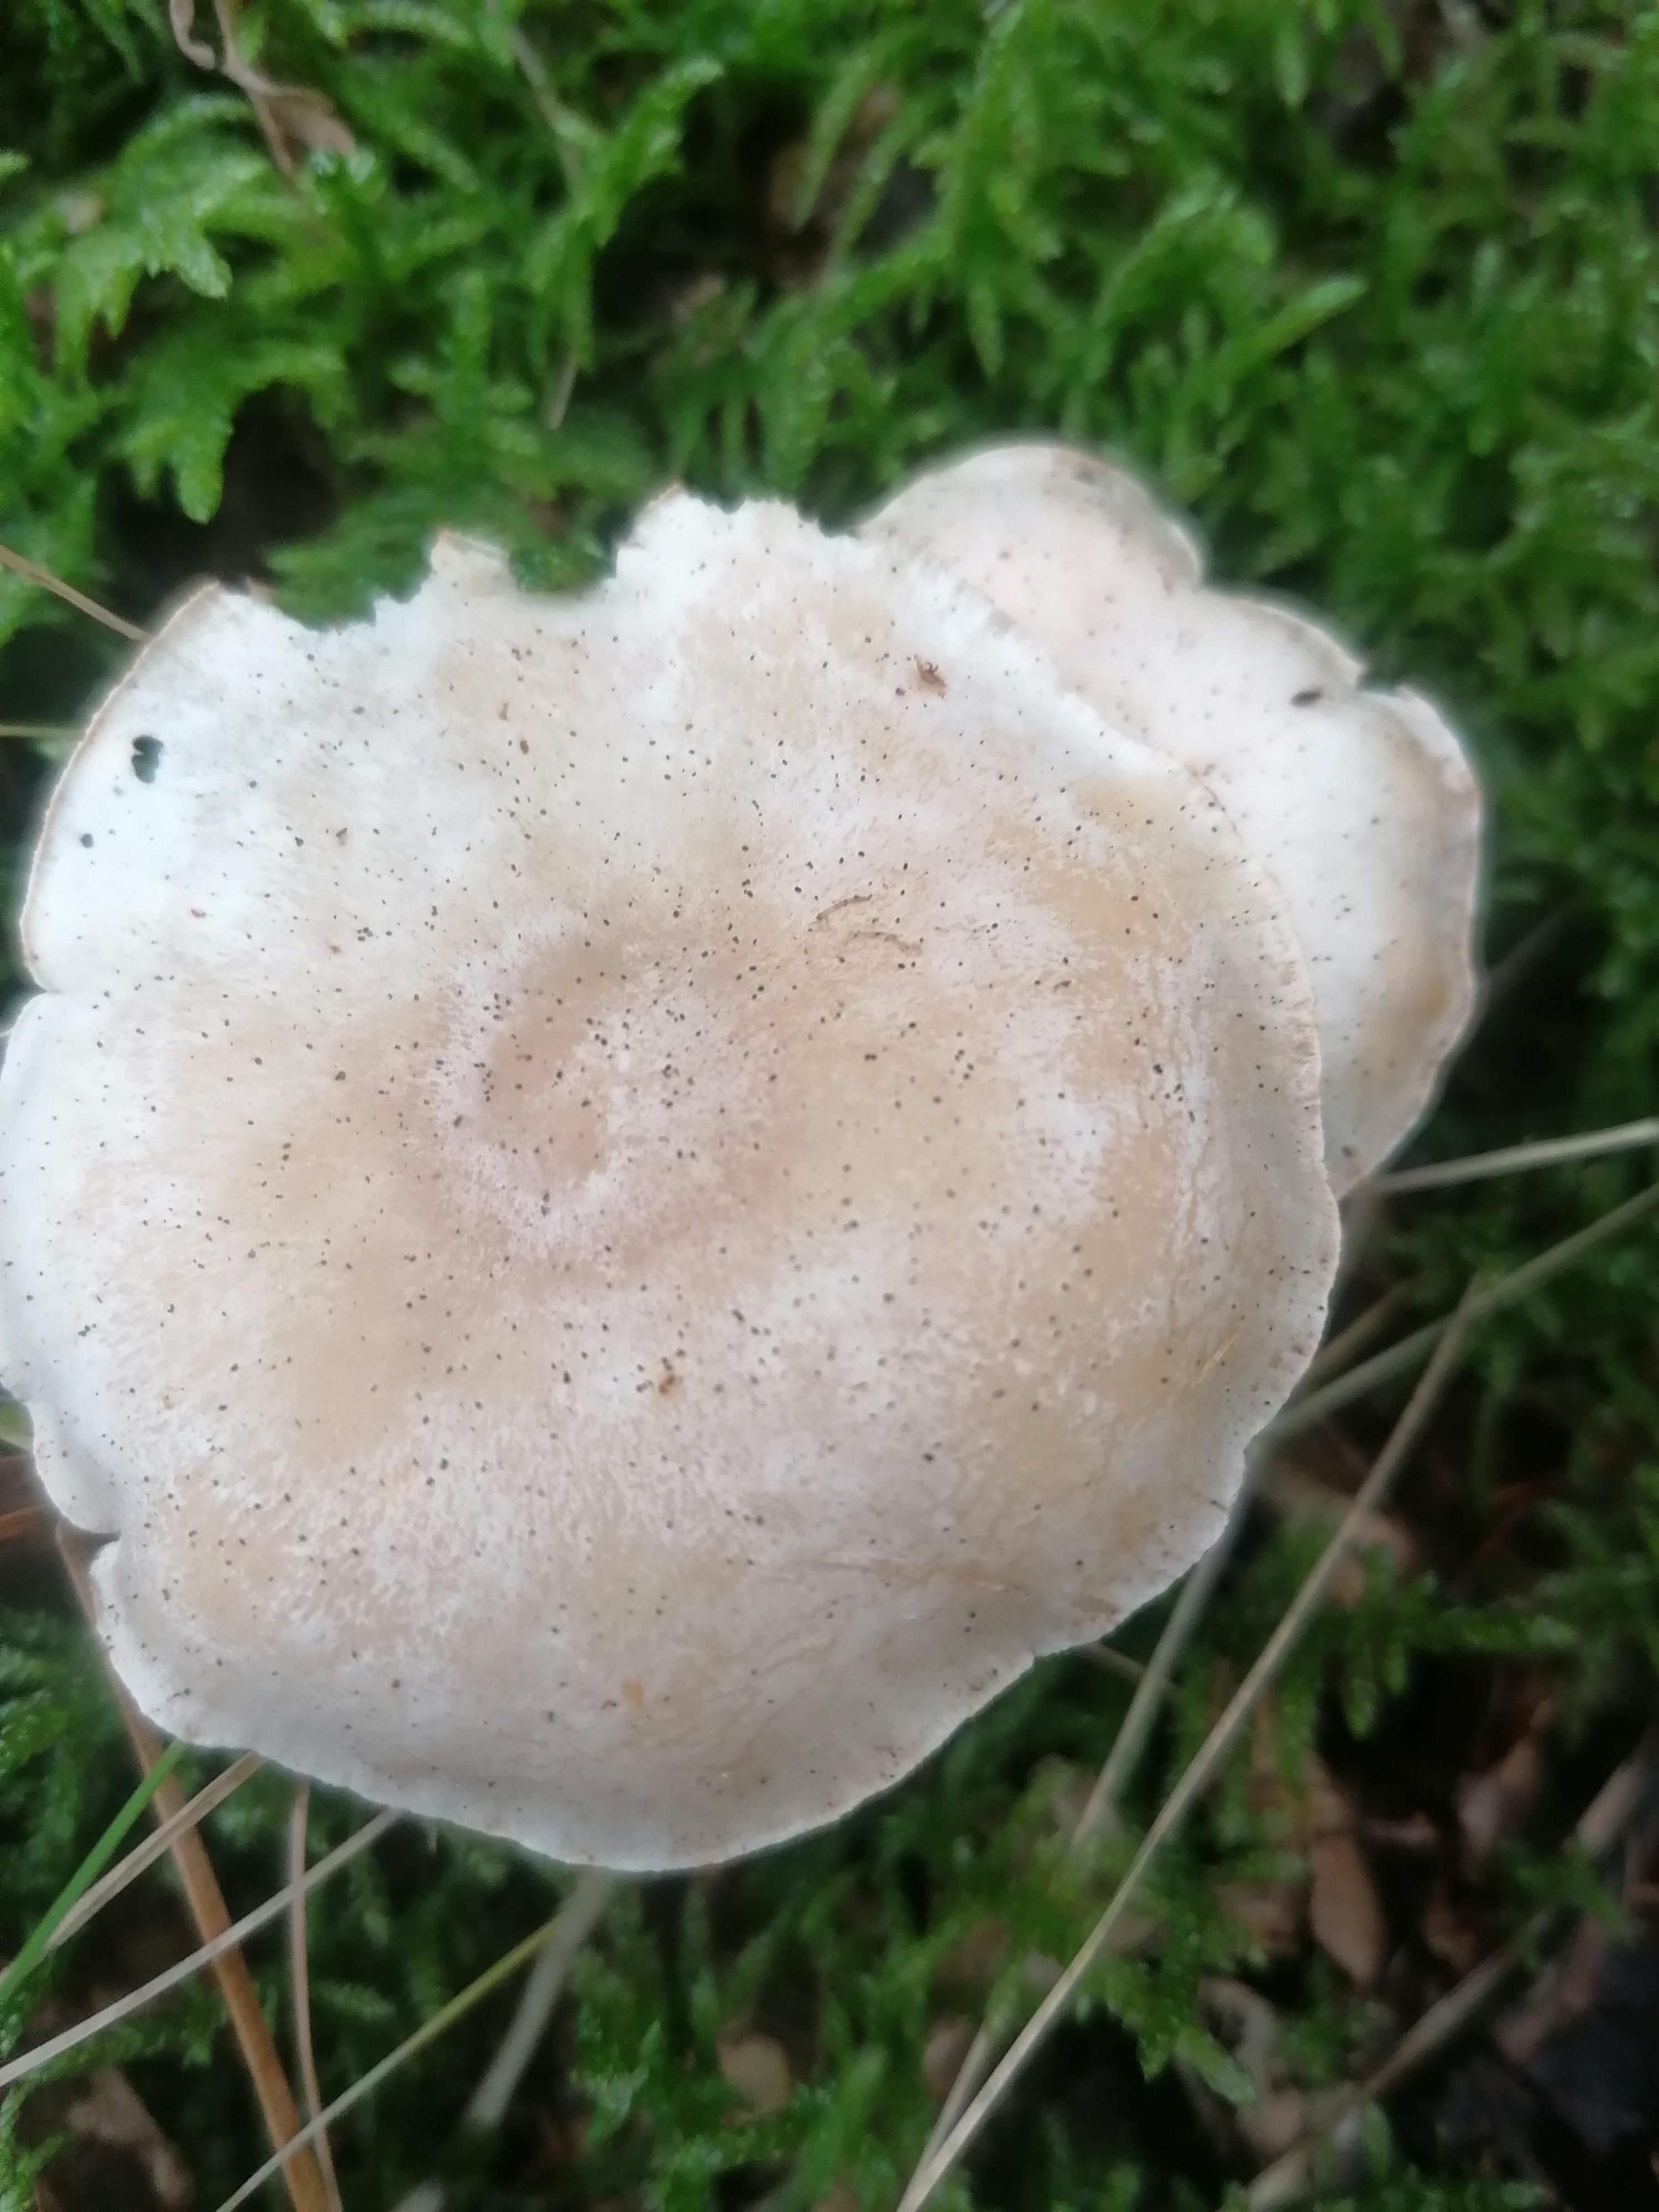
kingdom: Fungi
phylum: Basidiomycota
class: Agaricomycetes
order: Agaricales
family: Tricholomataceae
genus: Clitocybe
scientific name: Clitocybe
